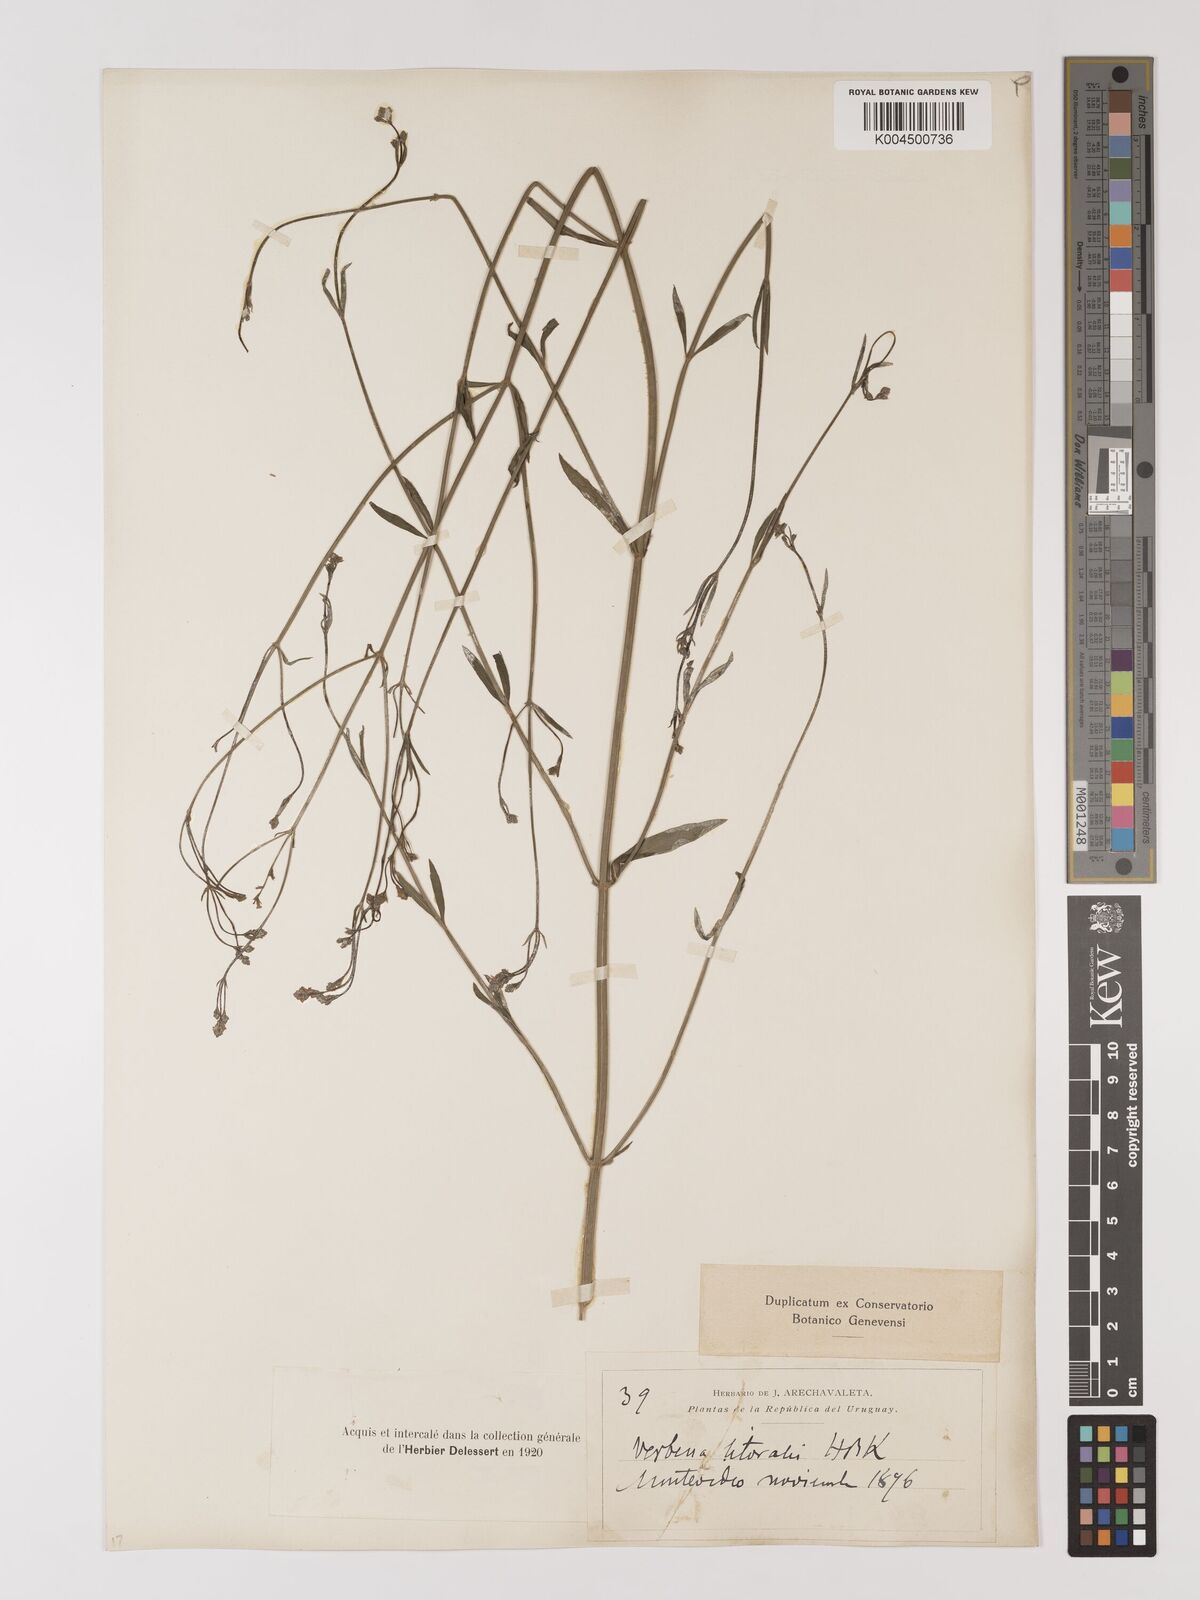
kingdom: Plantae
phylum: Tracheophyta
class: Magnoliopsida
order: Lamiales
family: Verbenaceae
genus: Verbena
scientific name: Verbena litoralis
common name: Seashore vervain
